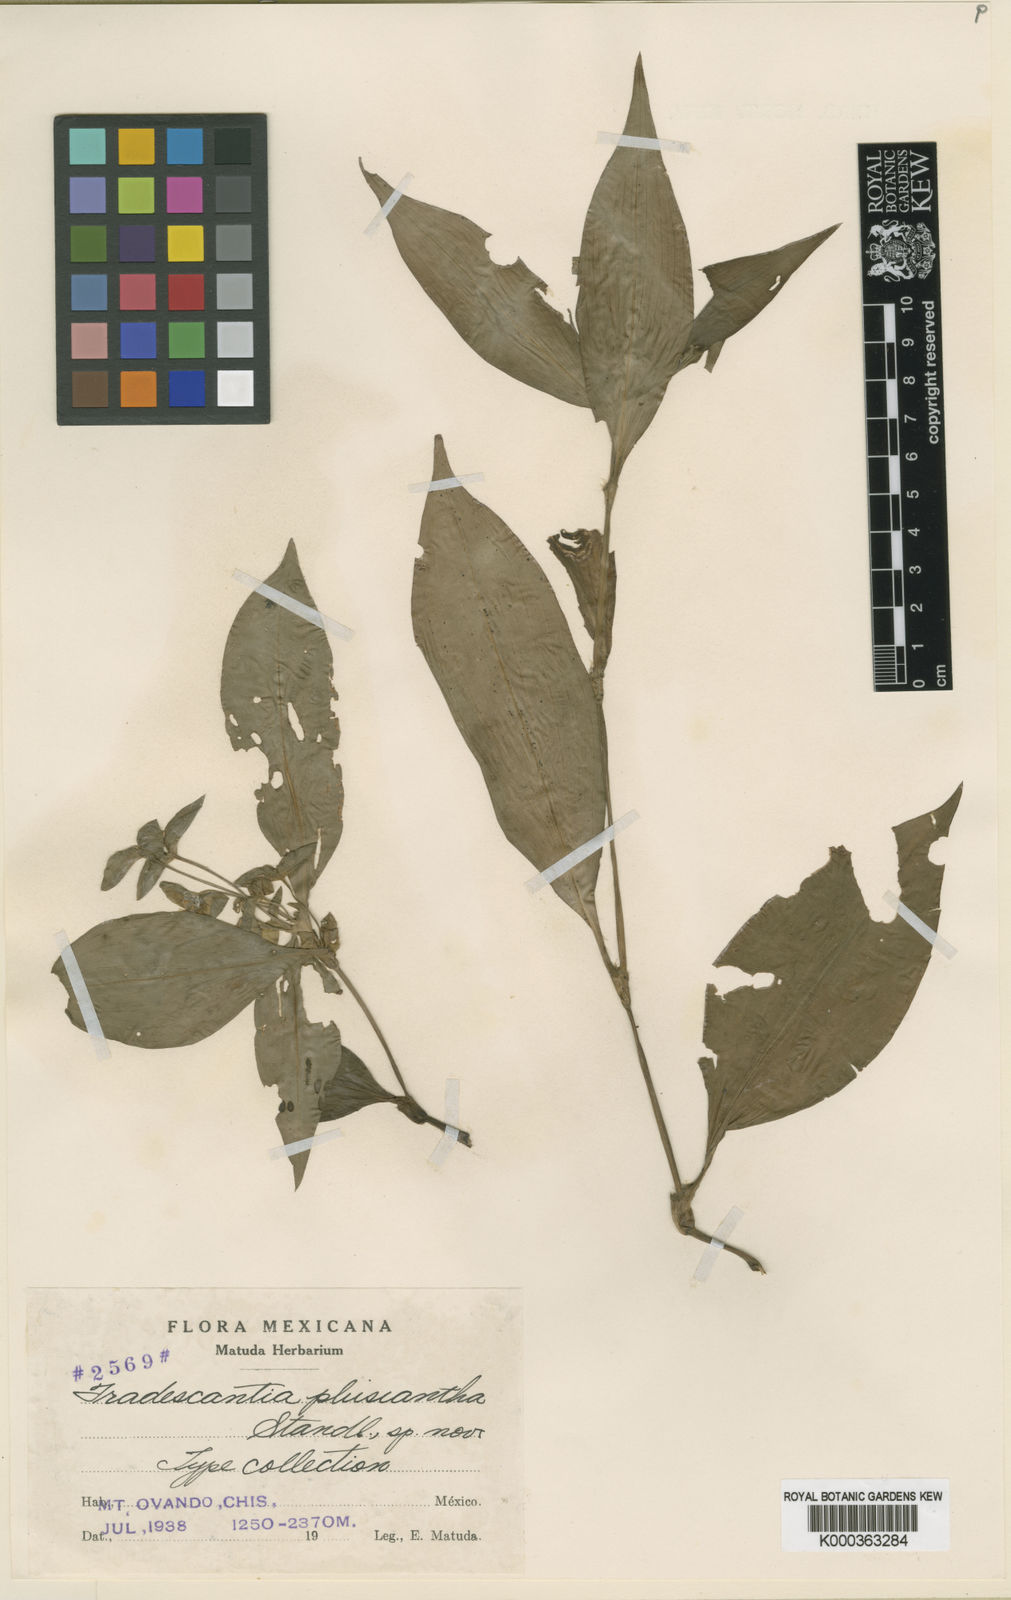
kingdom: Plantae
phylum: Tracheophyta
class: Liliopsida
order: Commelinales
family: Commelinaceae
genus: Tradescantia
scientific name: Tradescantia plusiantha
